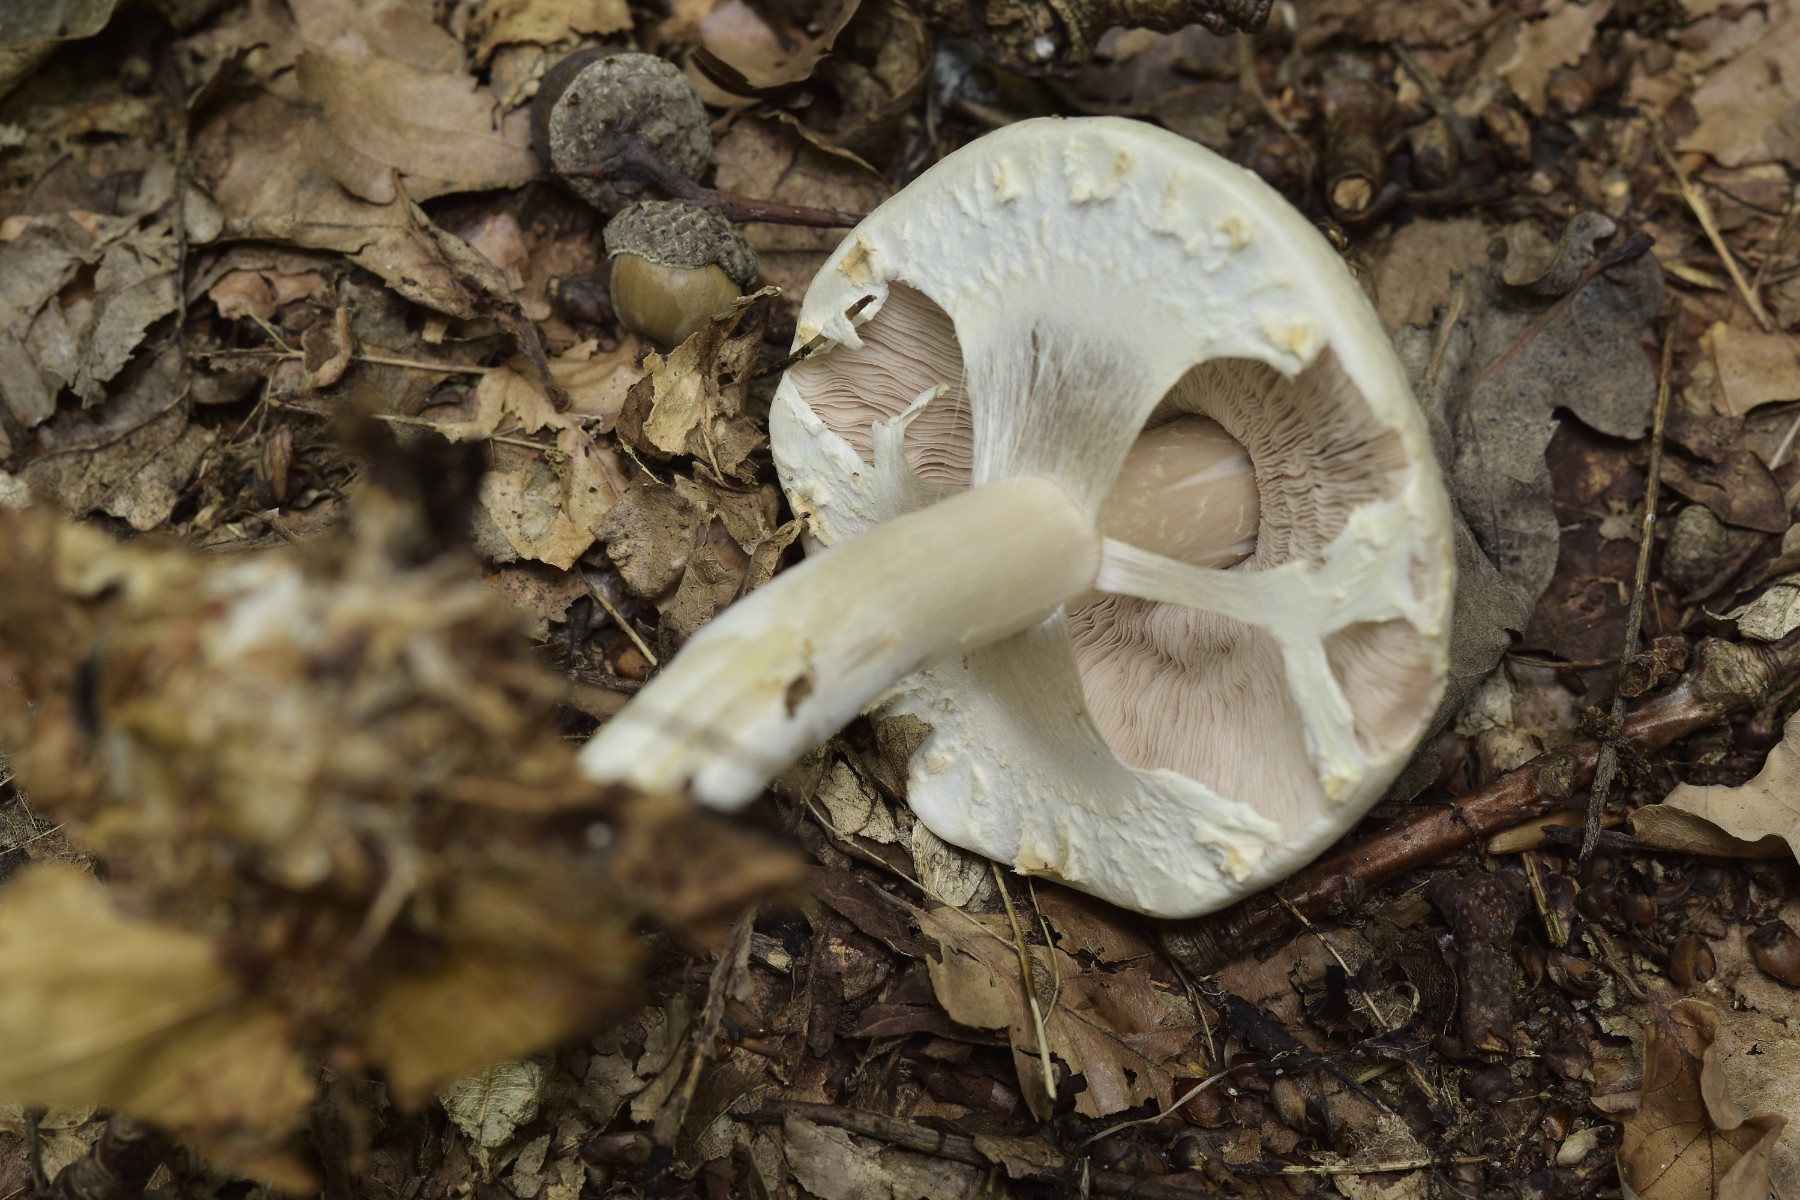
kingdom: Fungi
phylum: Basidiomycota
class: Agaricomycetes
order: Agaricales
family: Agaricaceae
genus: Agaricus
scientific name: Agaricus
